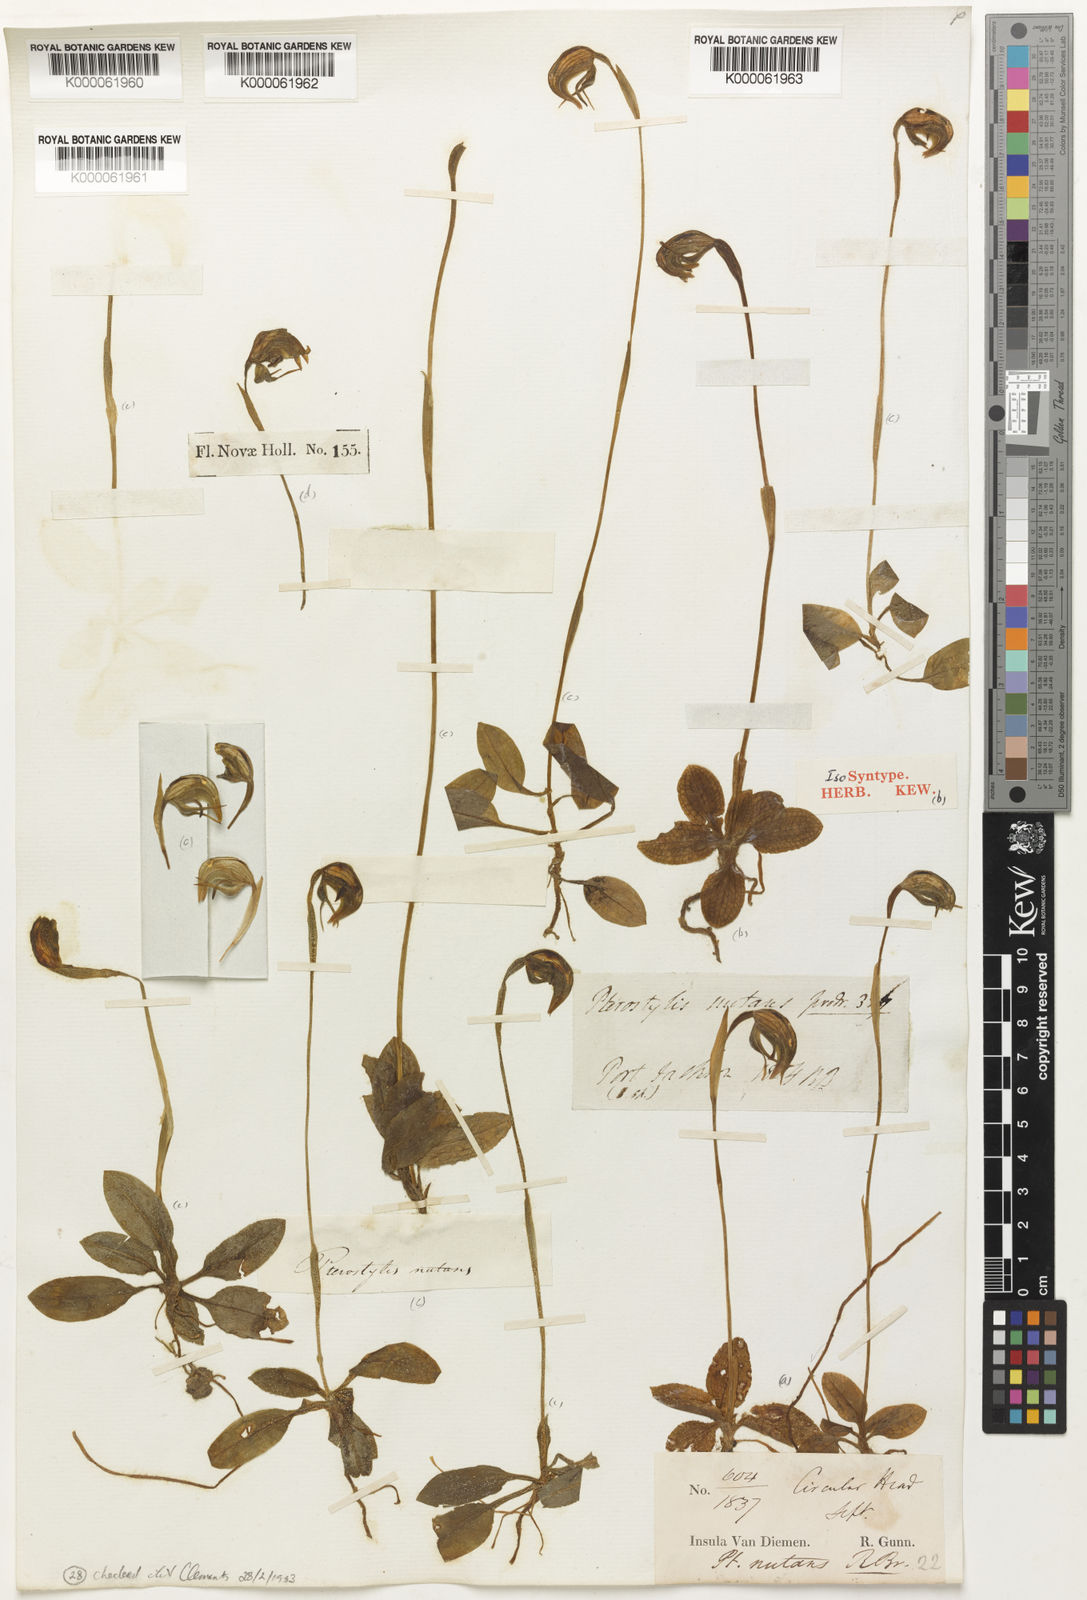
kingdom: Plantae
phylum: Tracheophyta
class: Liliopsida
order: Asparagales
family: Orchidaceae
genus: Pterostylis
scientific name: Pterostylis nutans
